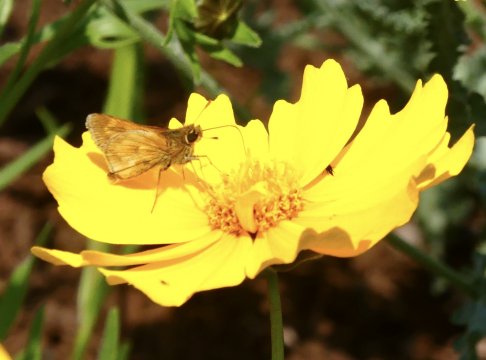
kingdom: Animalia
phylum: Arthropoda
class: Insecta
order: Lepidoptera
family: Hesperiidae
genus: Polites
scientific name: Polites
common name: Long Dash Skipper
